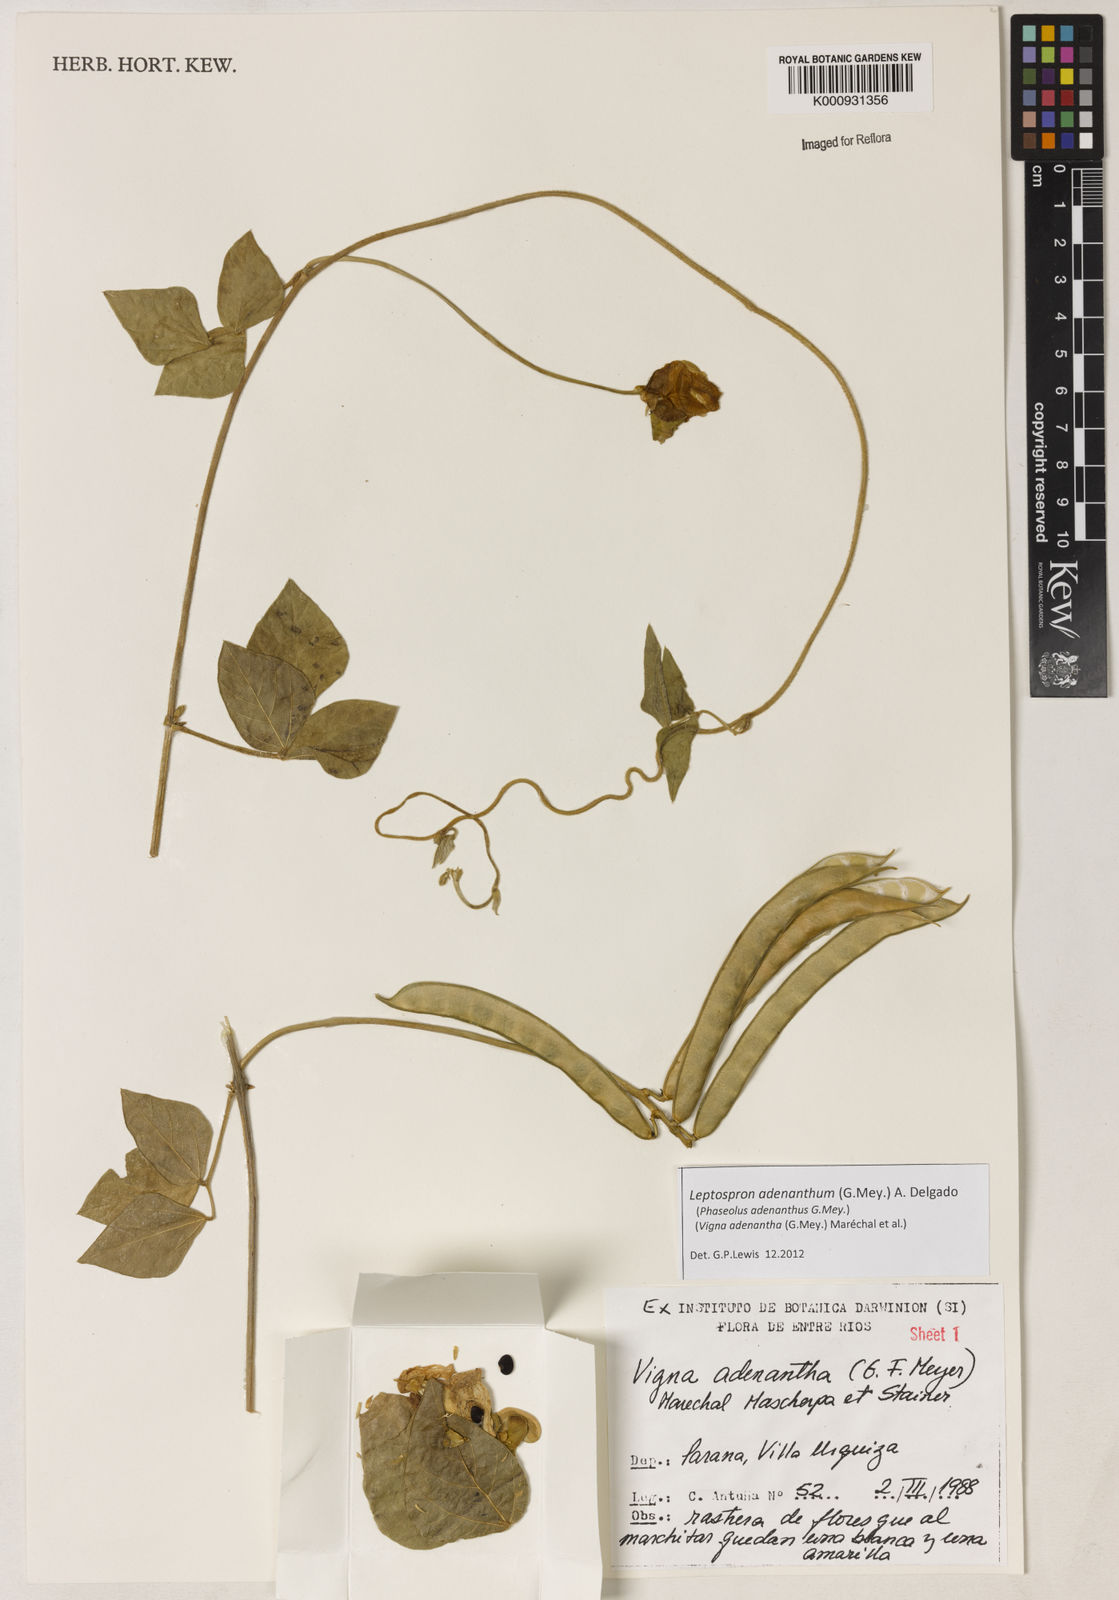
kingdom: Plantae
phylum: Tracheophyta
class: Magnoliopsida
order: Fabales
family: Fabaceae
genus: Leptospron
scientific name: Leptospron adenanthum
